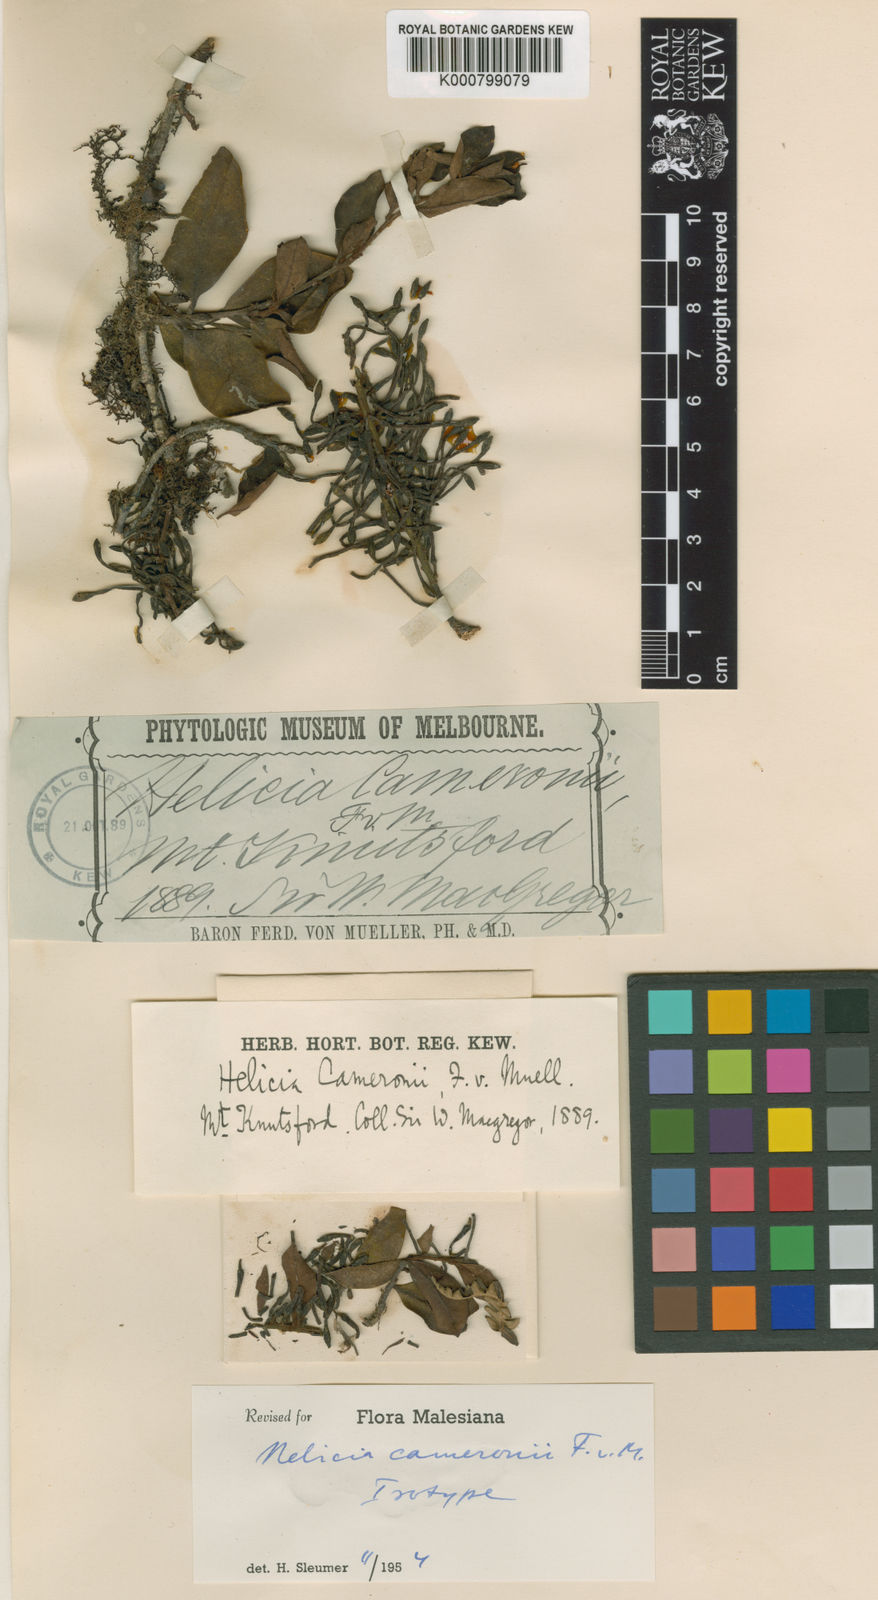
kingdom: Plantae
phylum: Tracheophyta
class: Magnoliopsida
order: Proteales
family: Proteaceae
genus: Helicia
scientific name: Helicia cameronii
